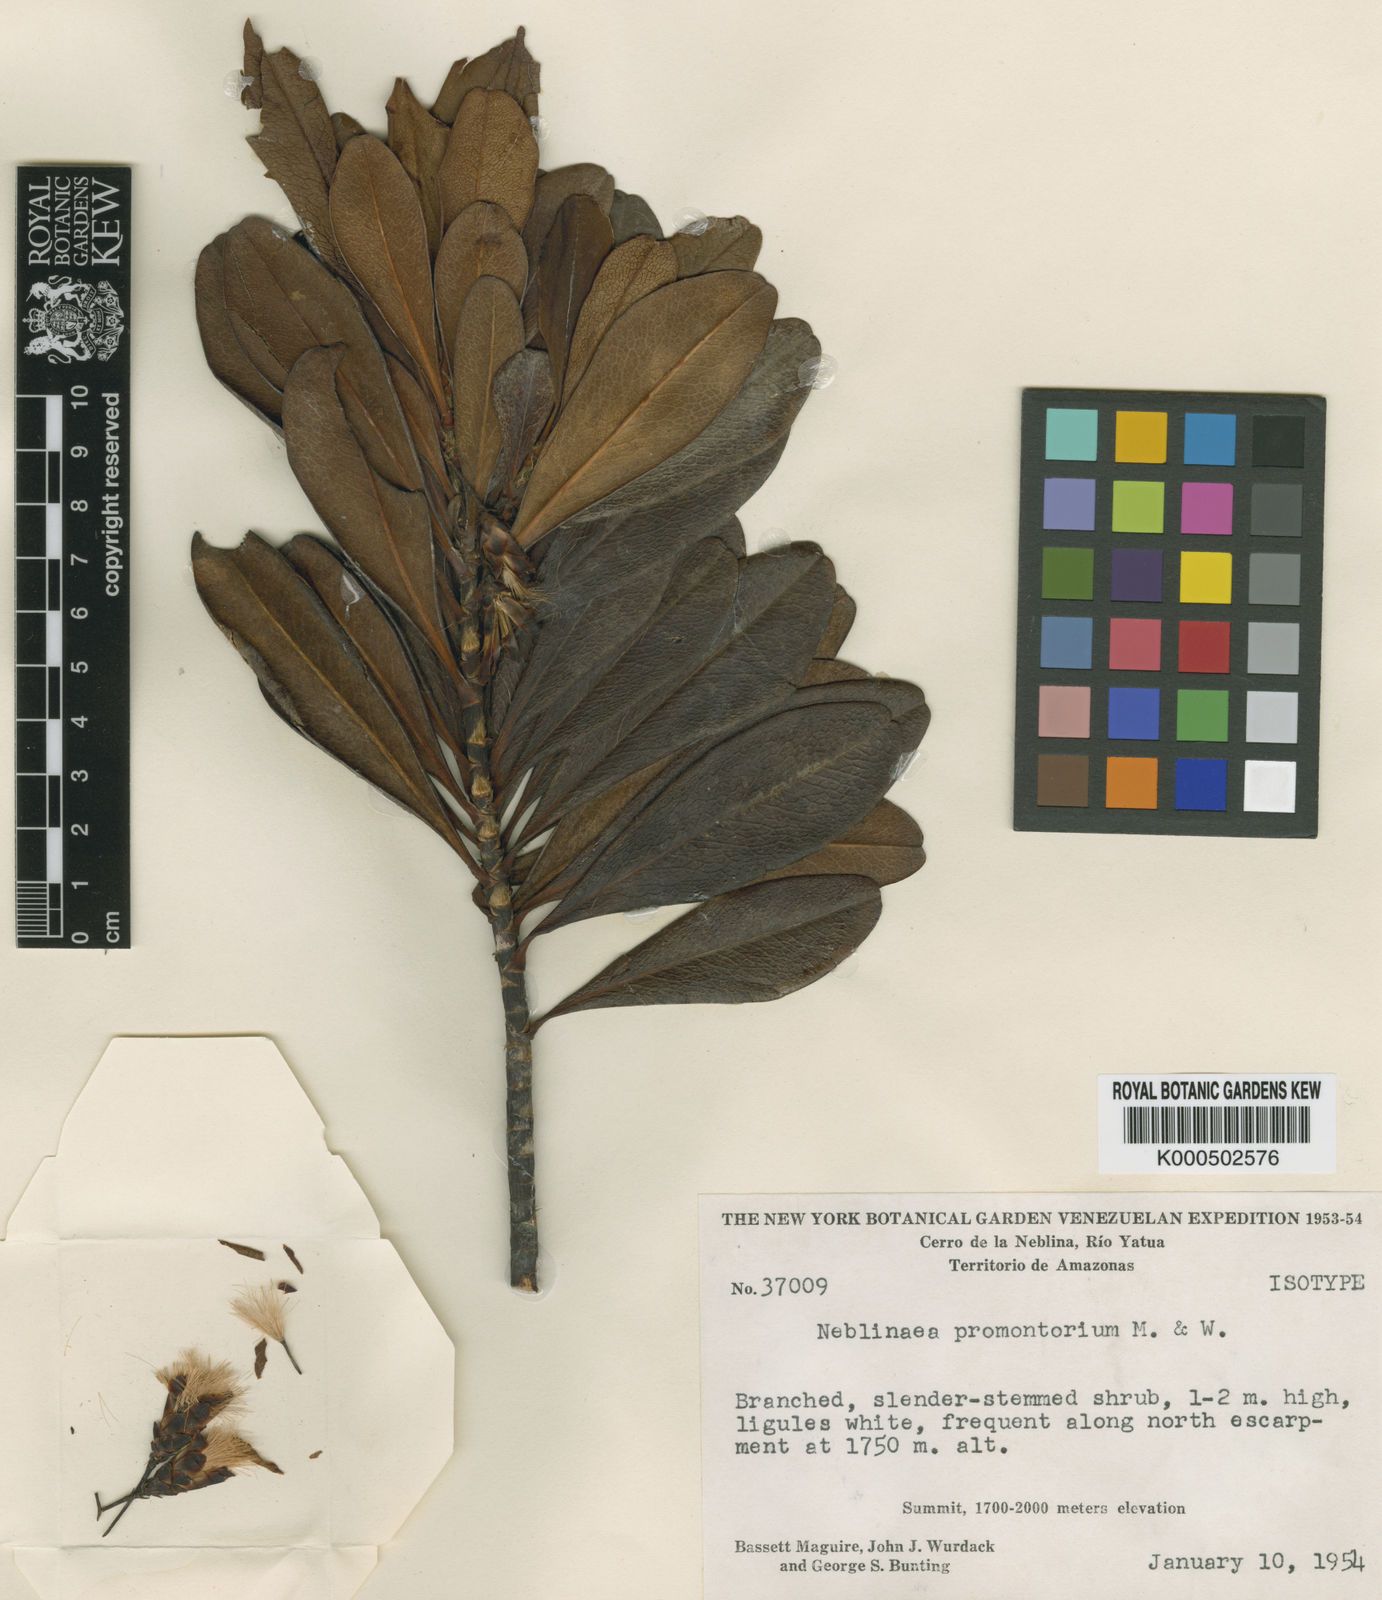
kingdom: Plantae
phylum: Tracheophyta
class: Magnoliopsida
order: Asterales
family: Asteraceae
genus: Neblinaea
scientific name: Neblinaea promontoriorum
